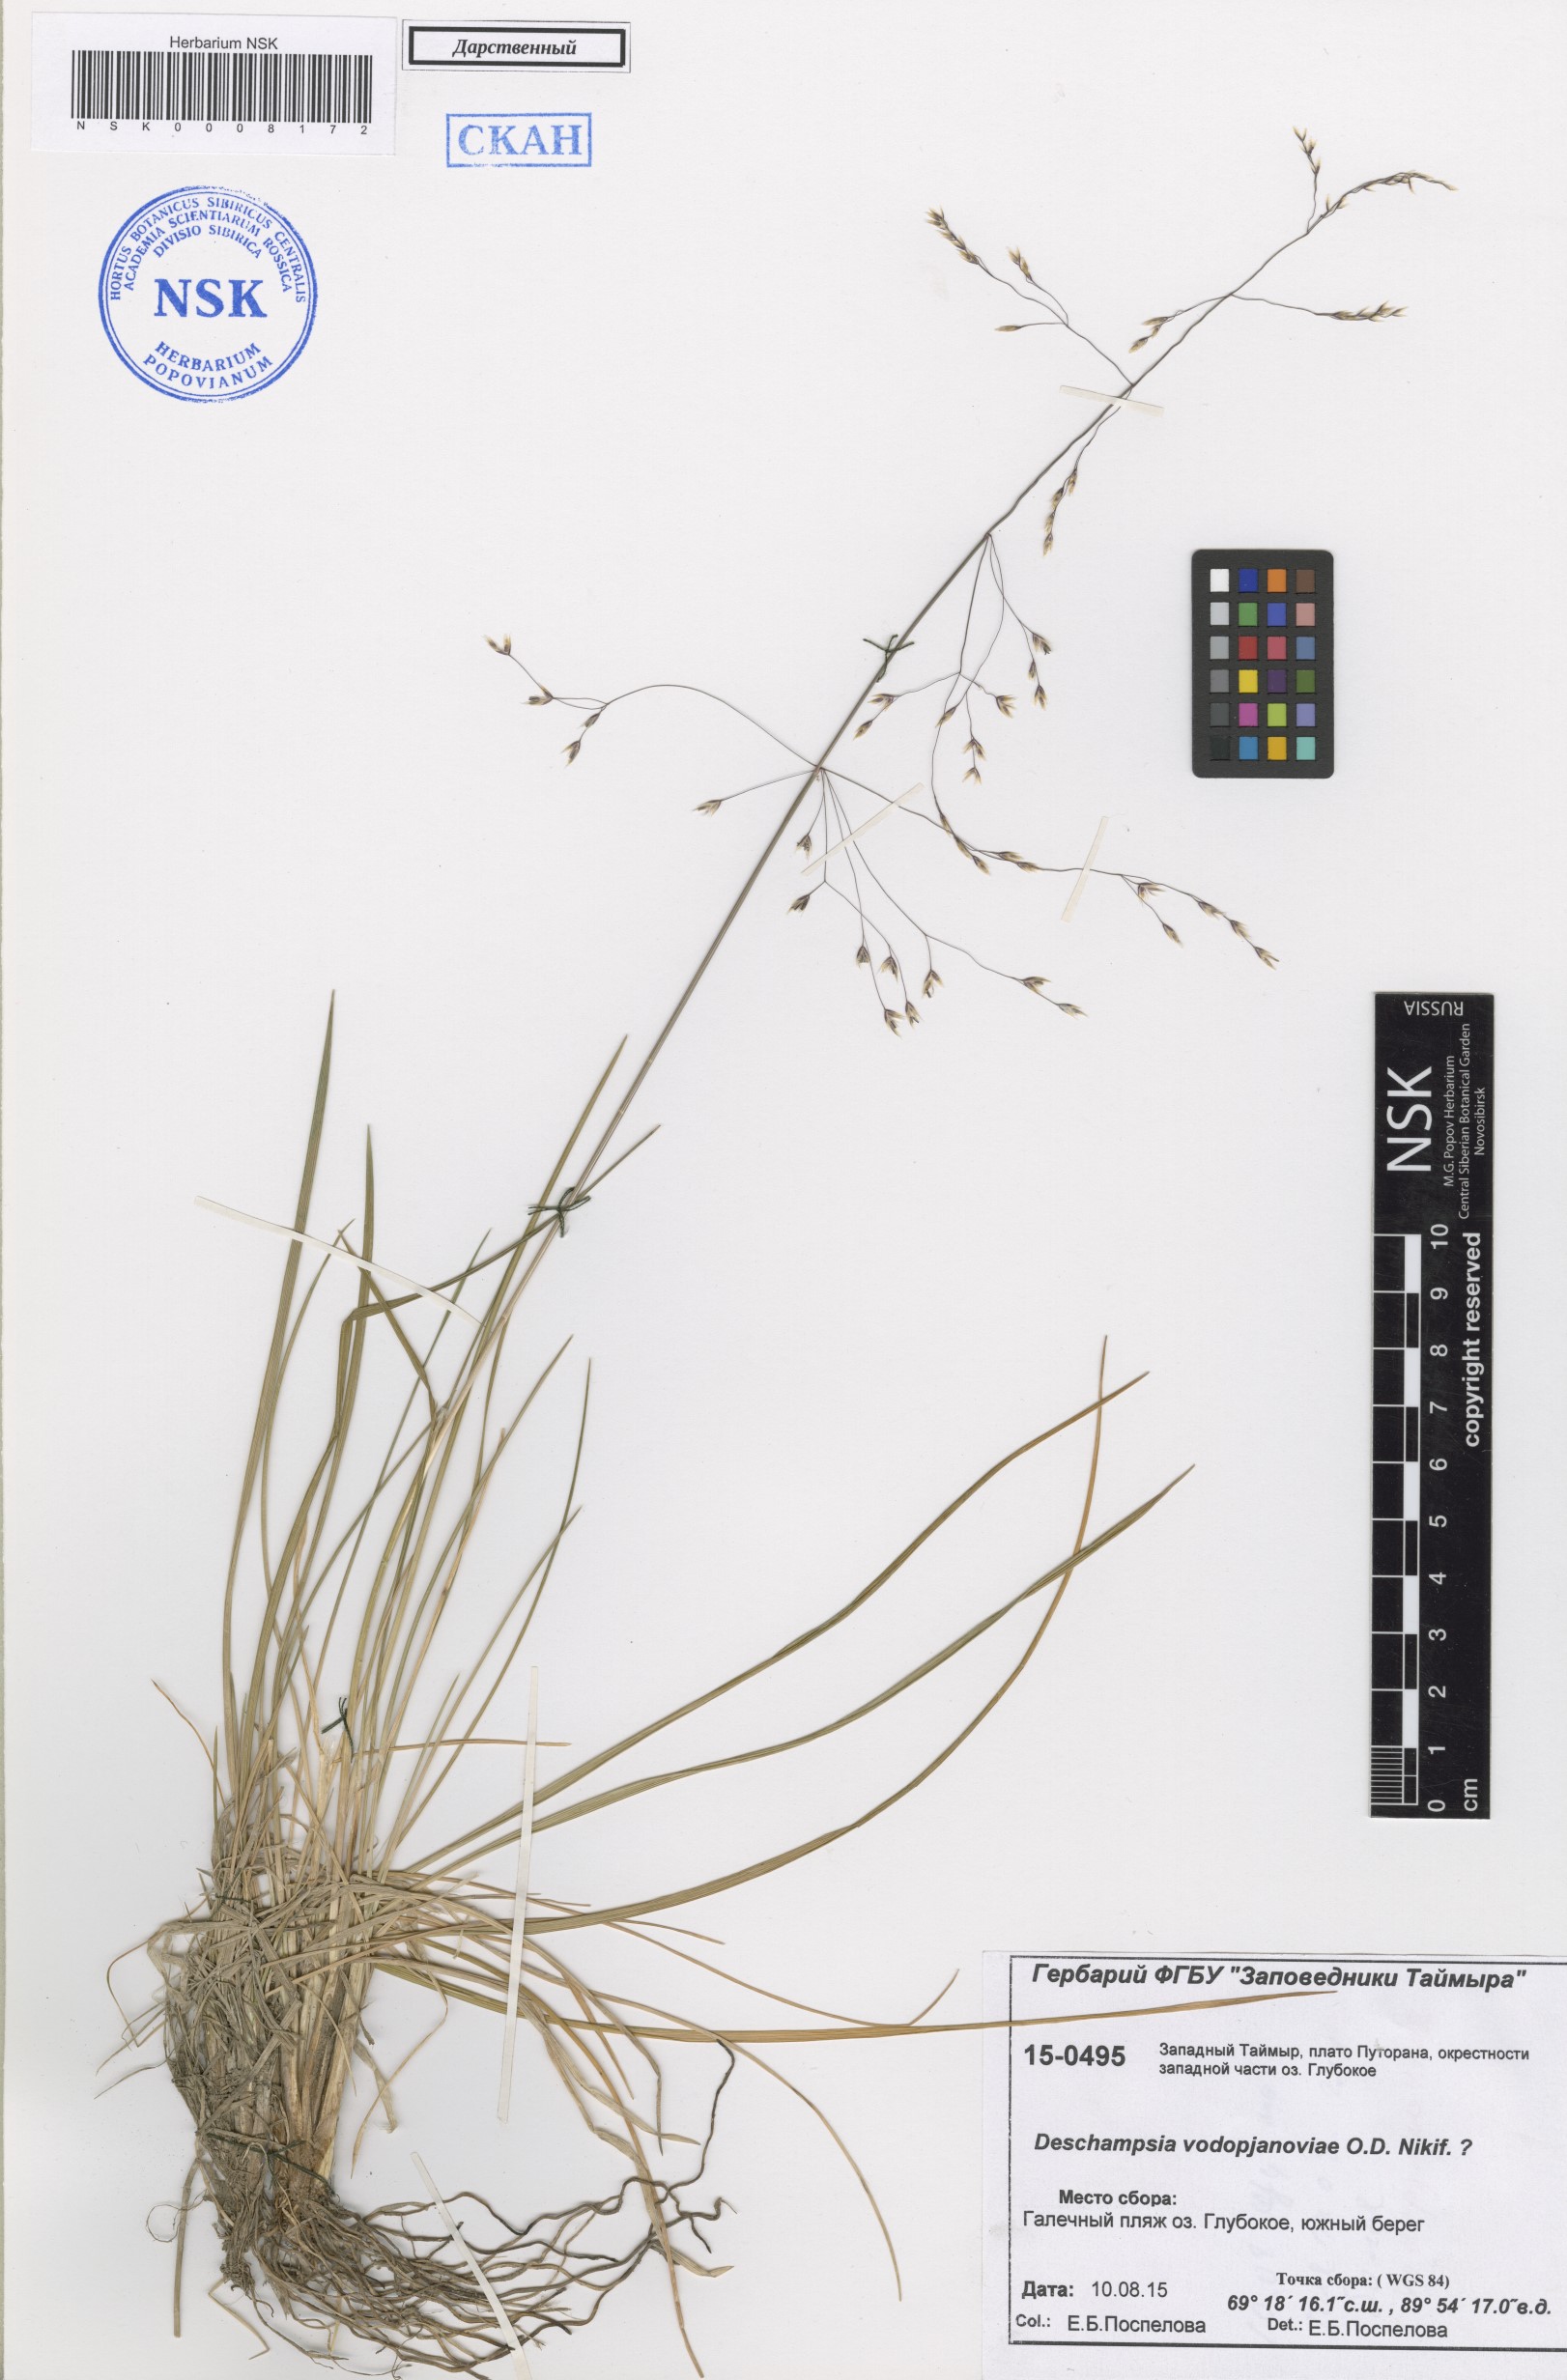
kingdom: Plantae
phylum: Tracheophyta
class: Liliopsida
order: Poales
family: Poaceae
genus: Deschampsia
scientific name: Deschampsia cespitosa
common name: Tufted hair-grass
